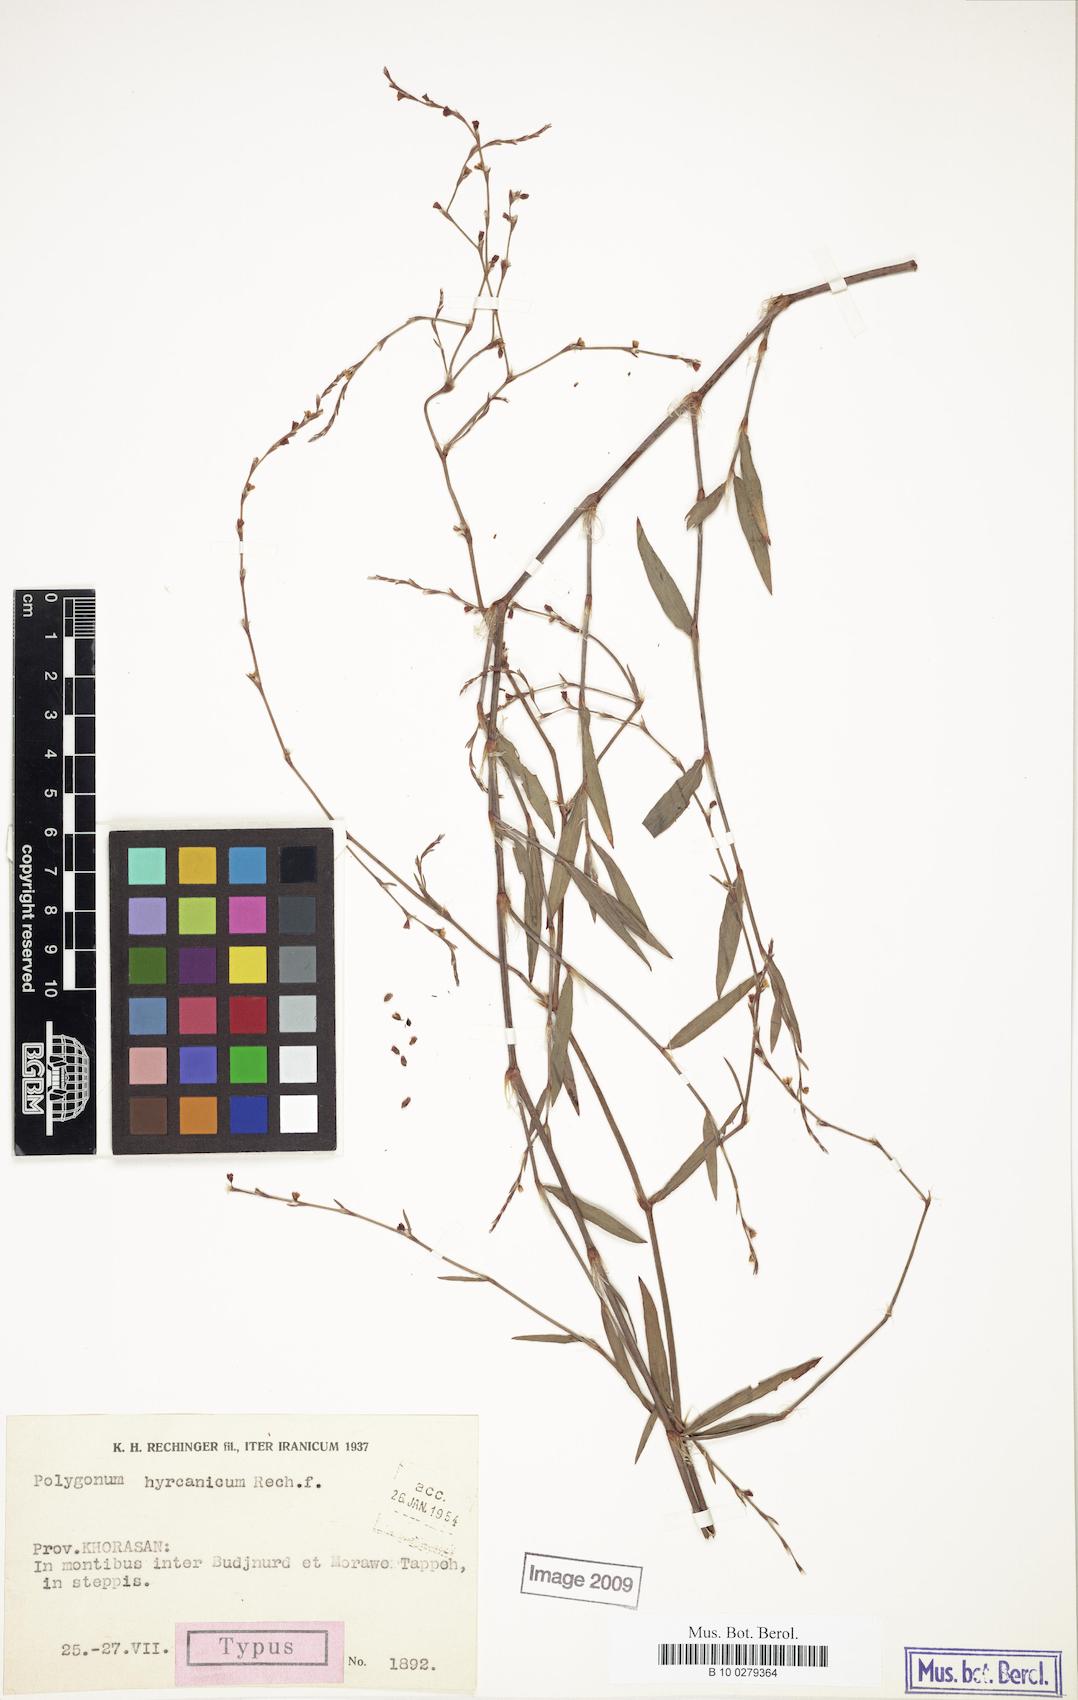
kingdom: Plantae
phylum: Tracheophyta
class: Magnoliopsida
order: Caryophyllales
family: Polygonaceae
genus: Polygonum
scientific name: Polygonum hyrcanicum
